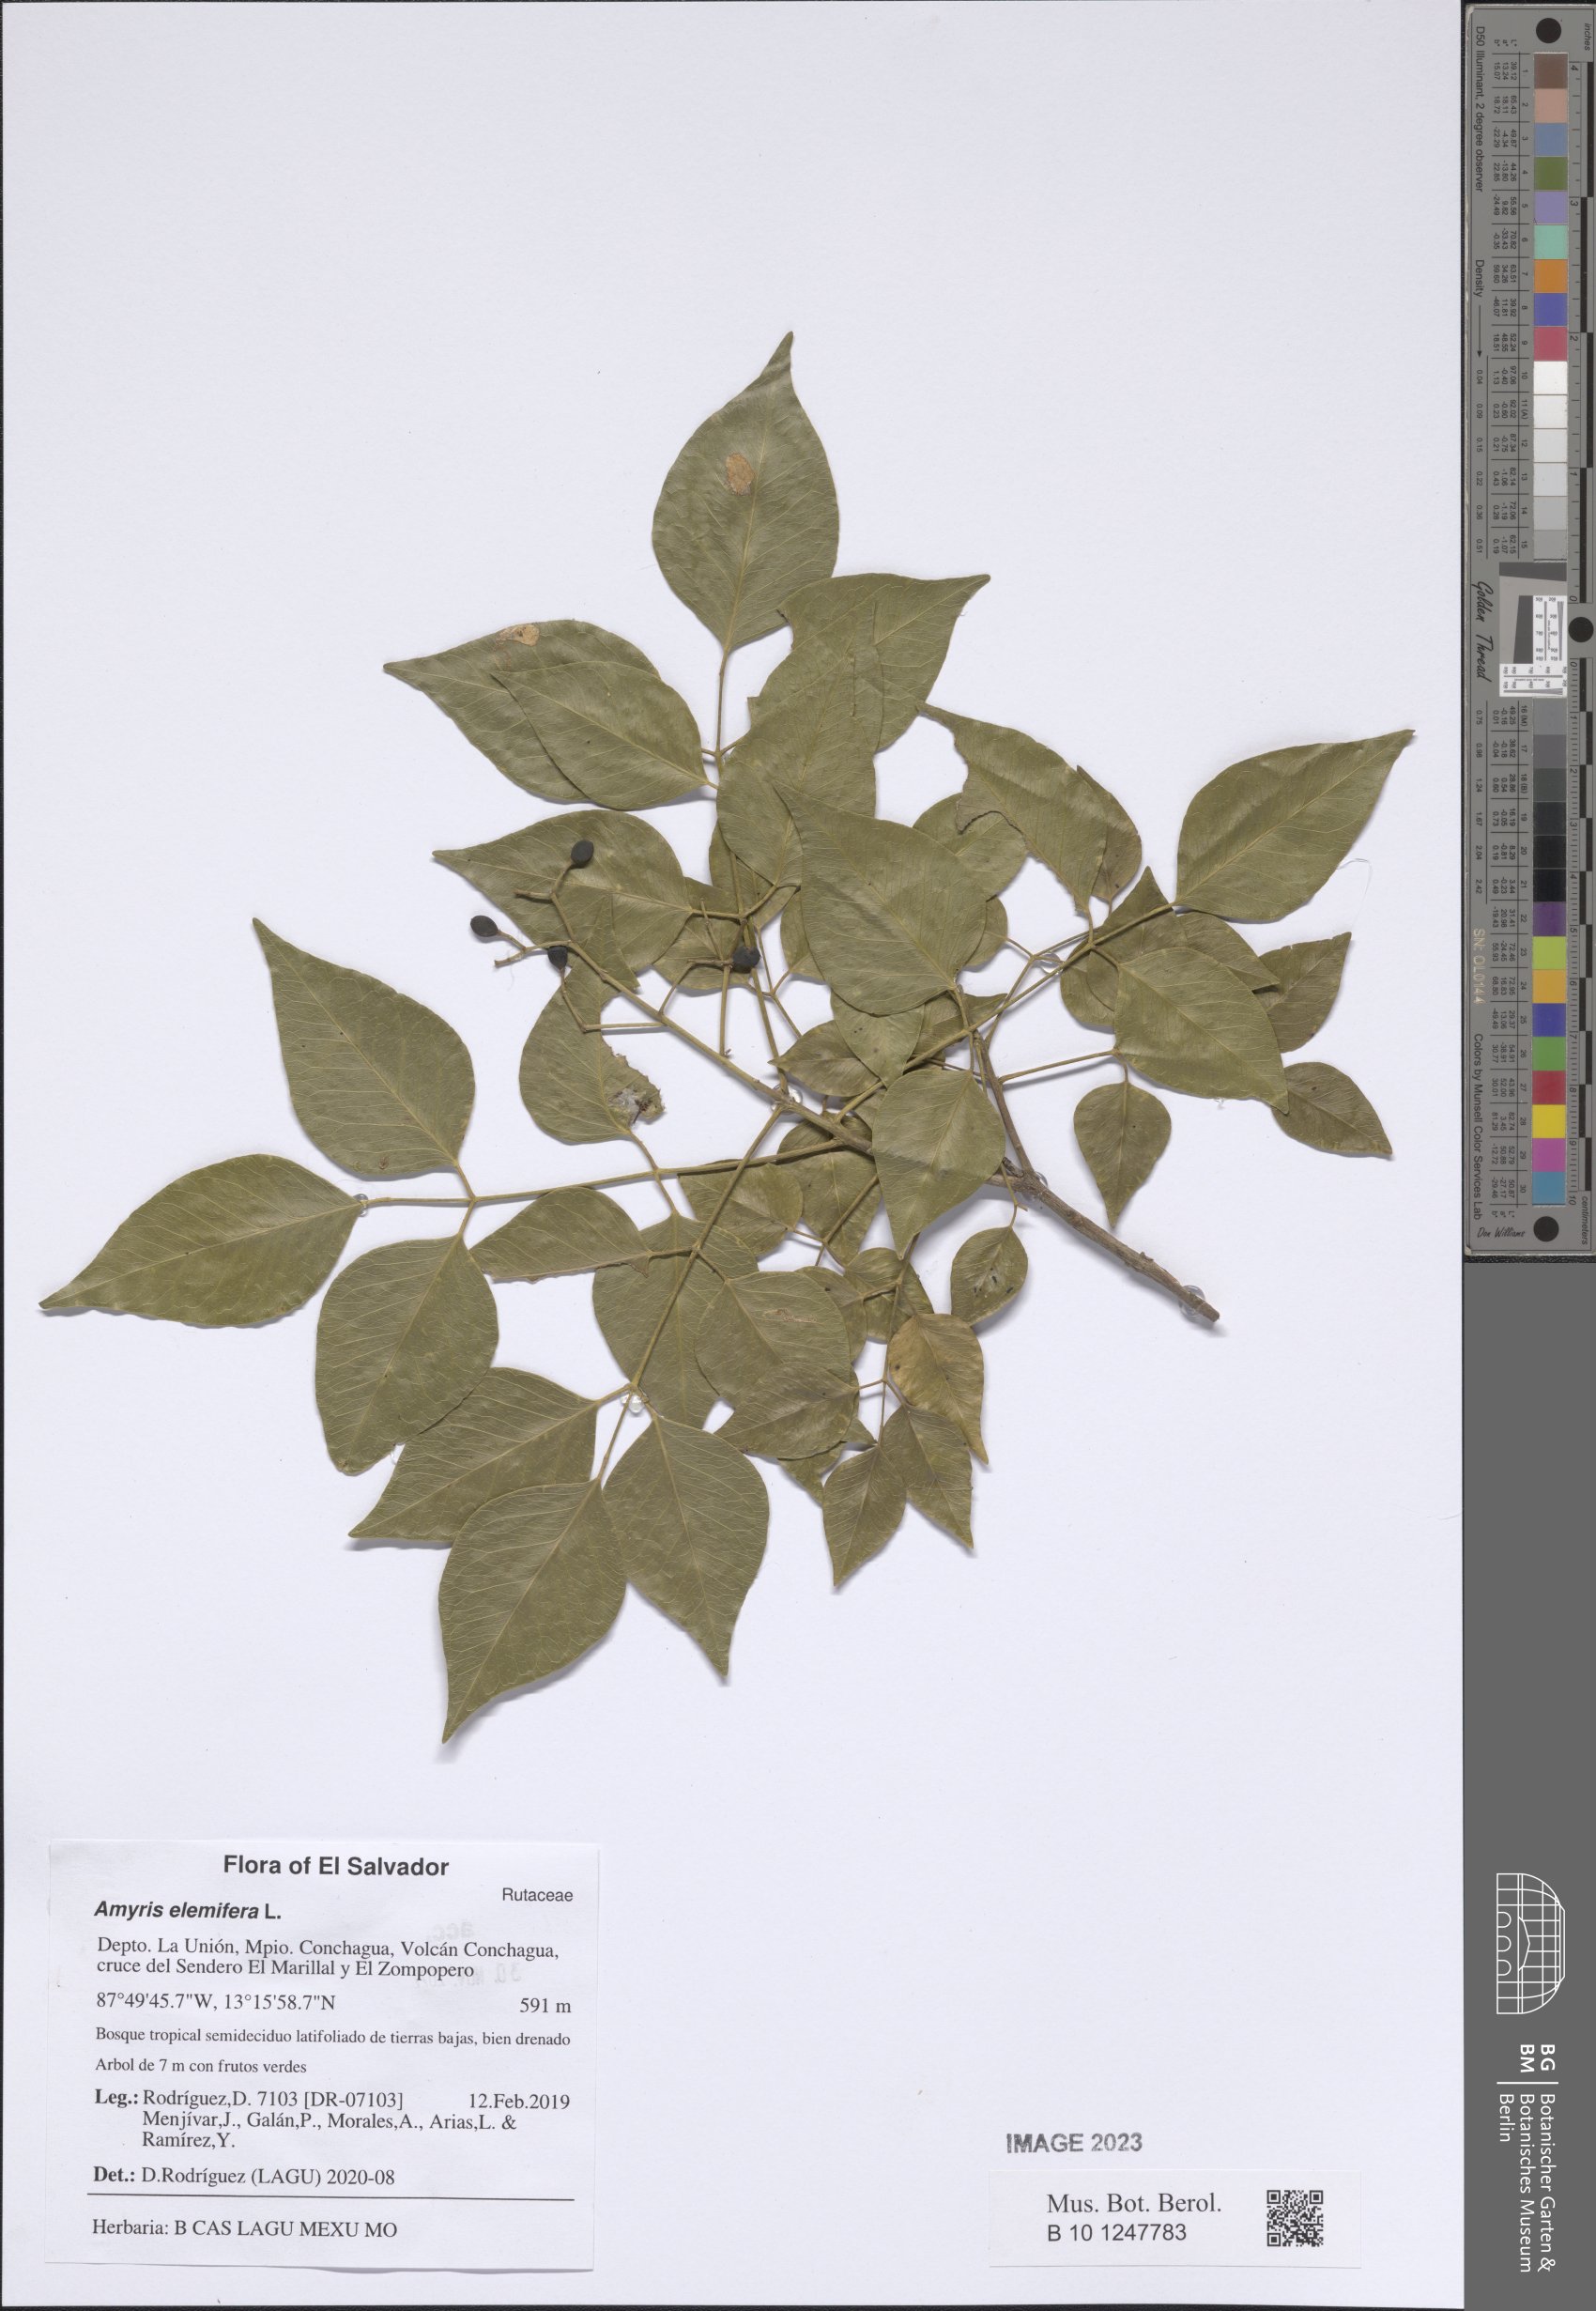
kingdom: Plantae
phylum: Tracheophyta
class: Magnoliopsida
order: Sapindales
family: Rutaceae
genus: Amyris
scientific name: Amyris elemifera
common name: Sea amyris
